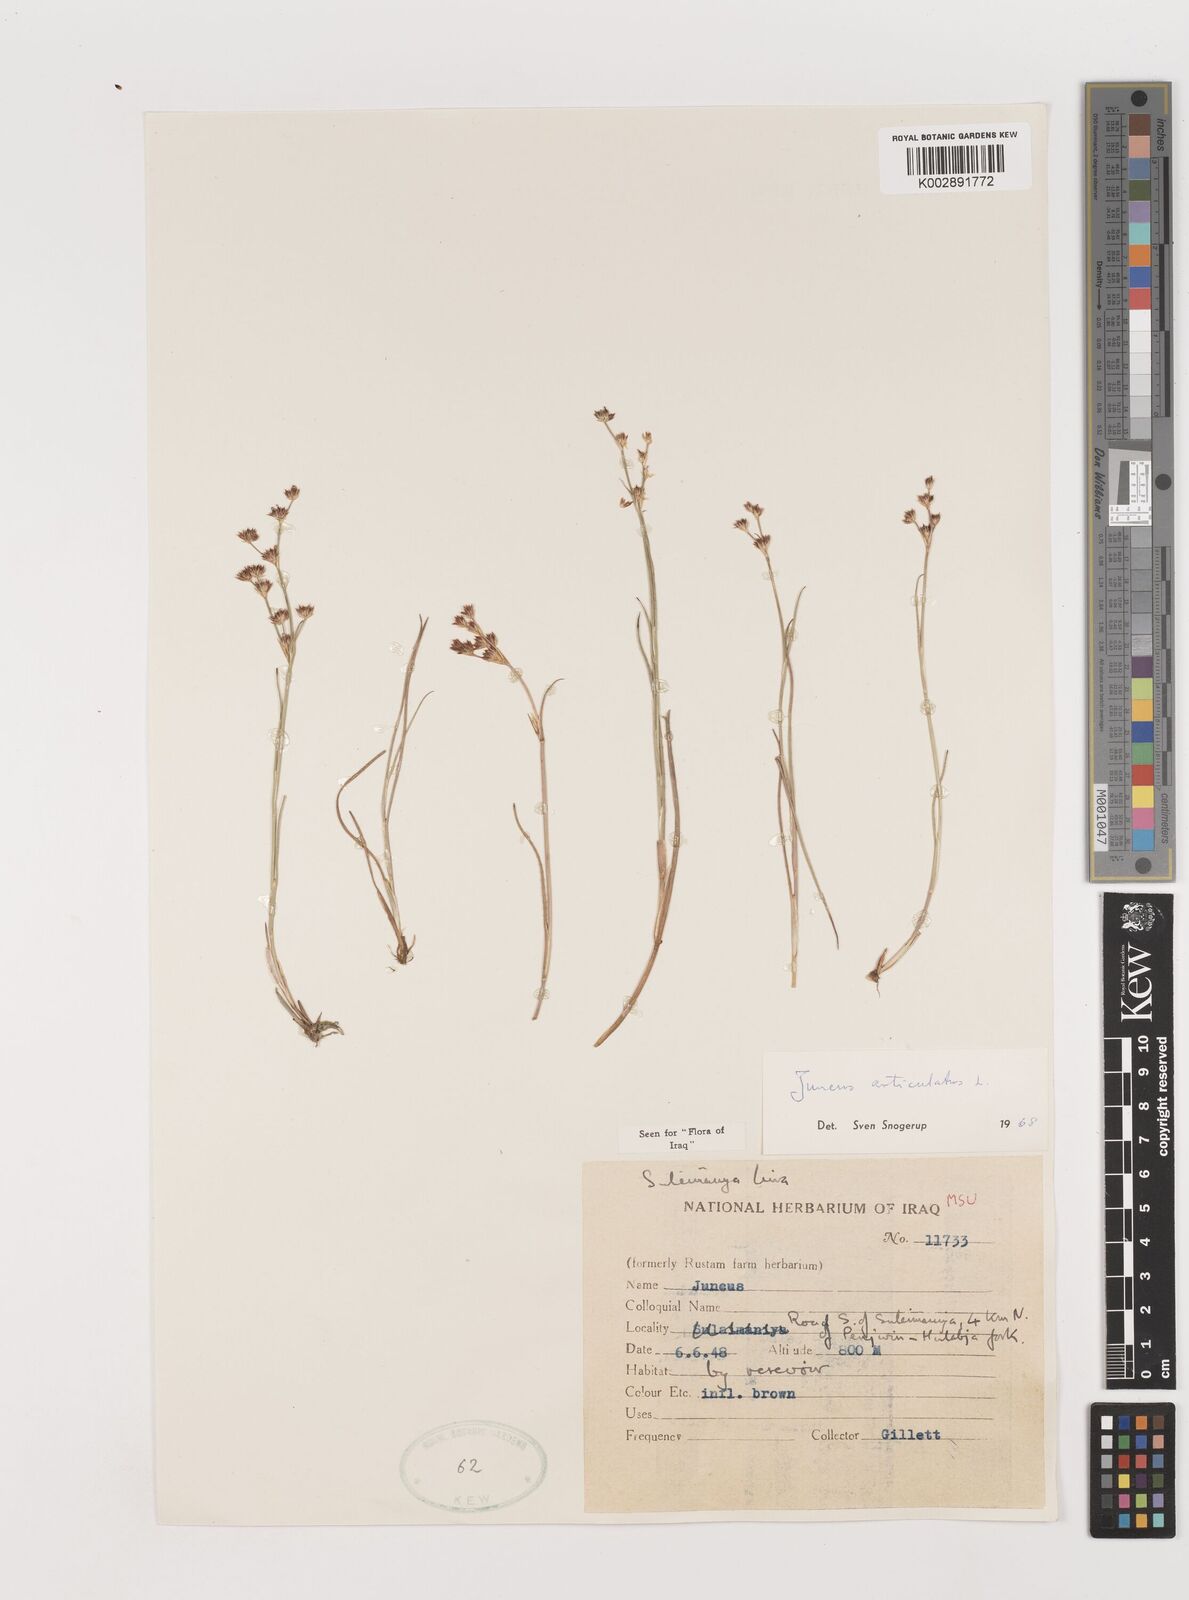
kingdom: Plantae
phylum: Tracheophyta
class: Liliopsida
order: Poales
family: Juncaceae
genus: Juncus
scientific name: Juncus articulatus
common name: Jointed rush
